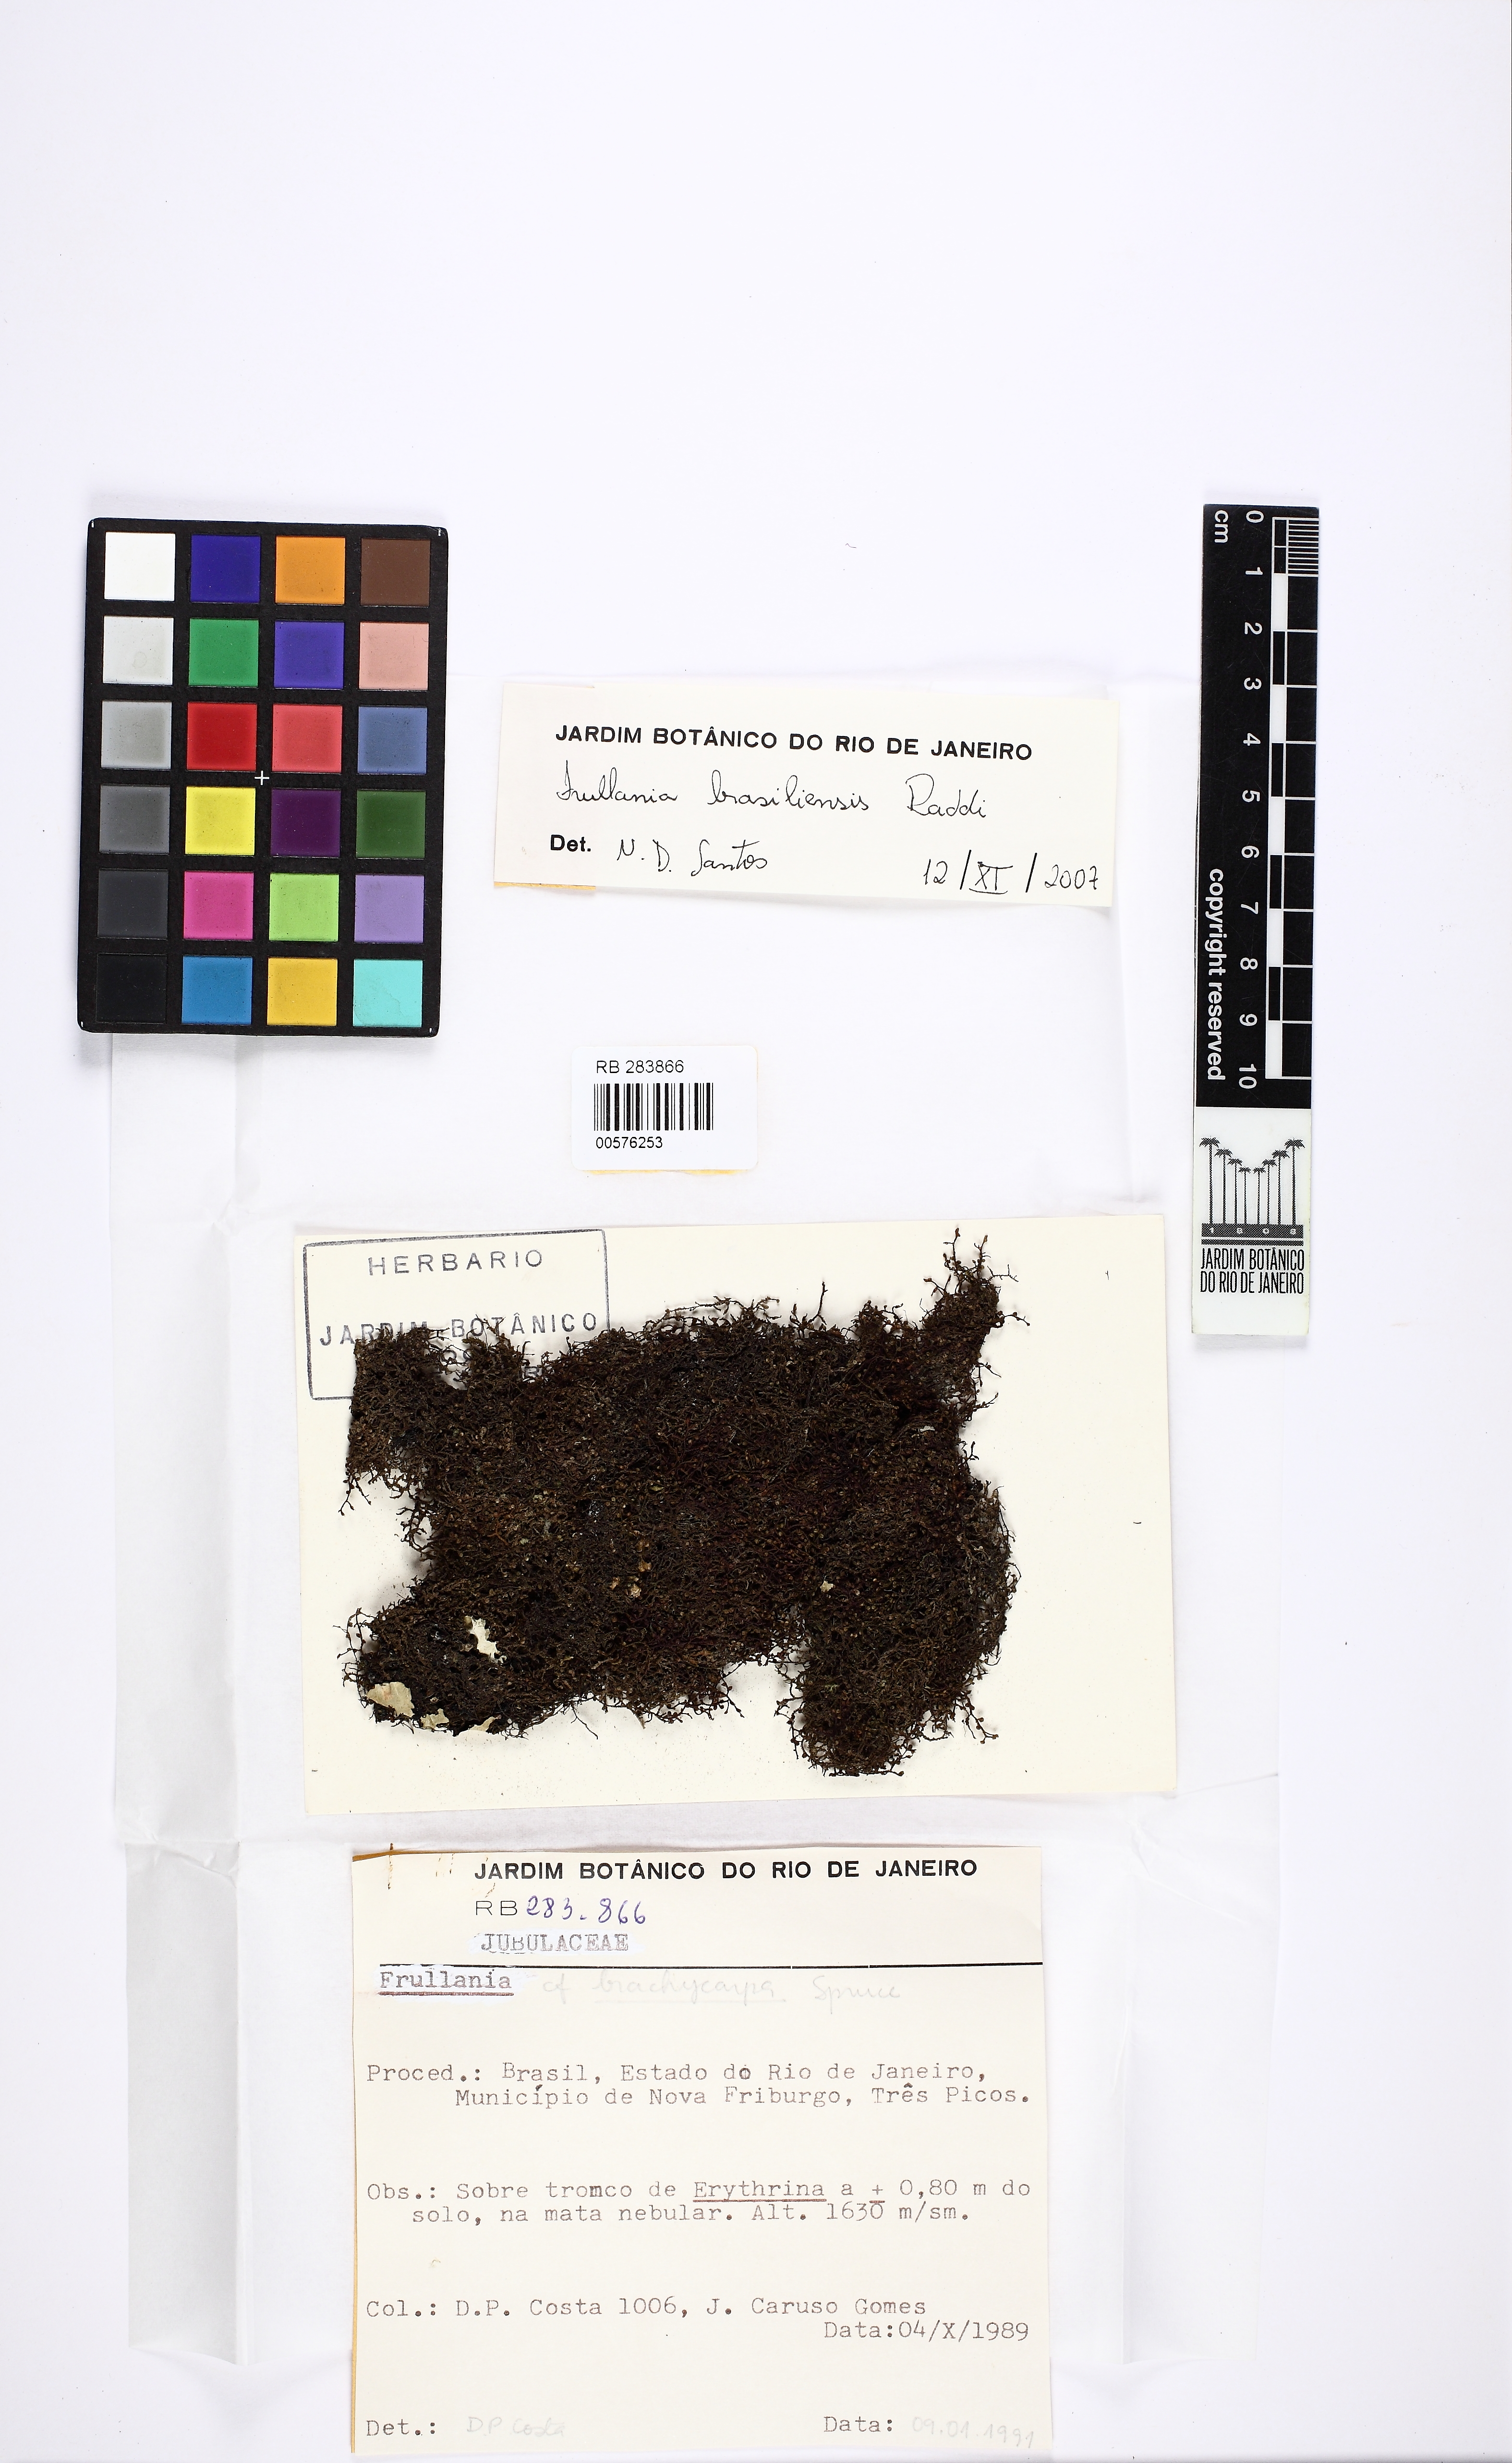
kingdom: Plantae
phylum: Marchantiophyta
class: Jungermanniopsida
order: Porellales
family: Frullaniaceae
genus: Frullania
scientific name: Frullania brasiliensis
